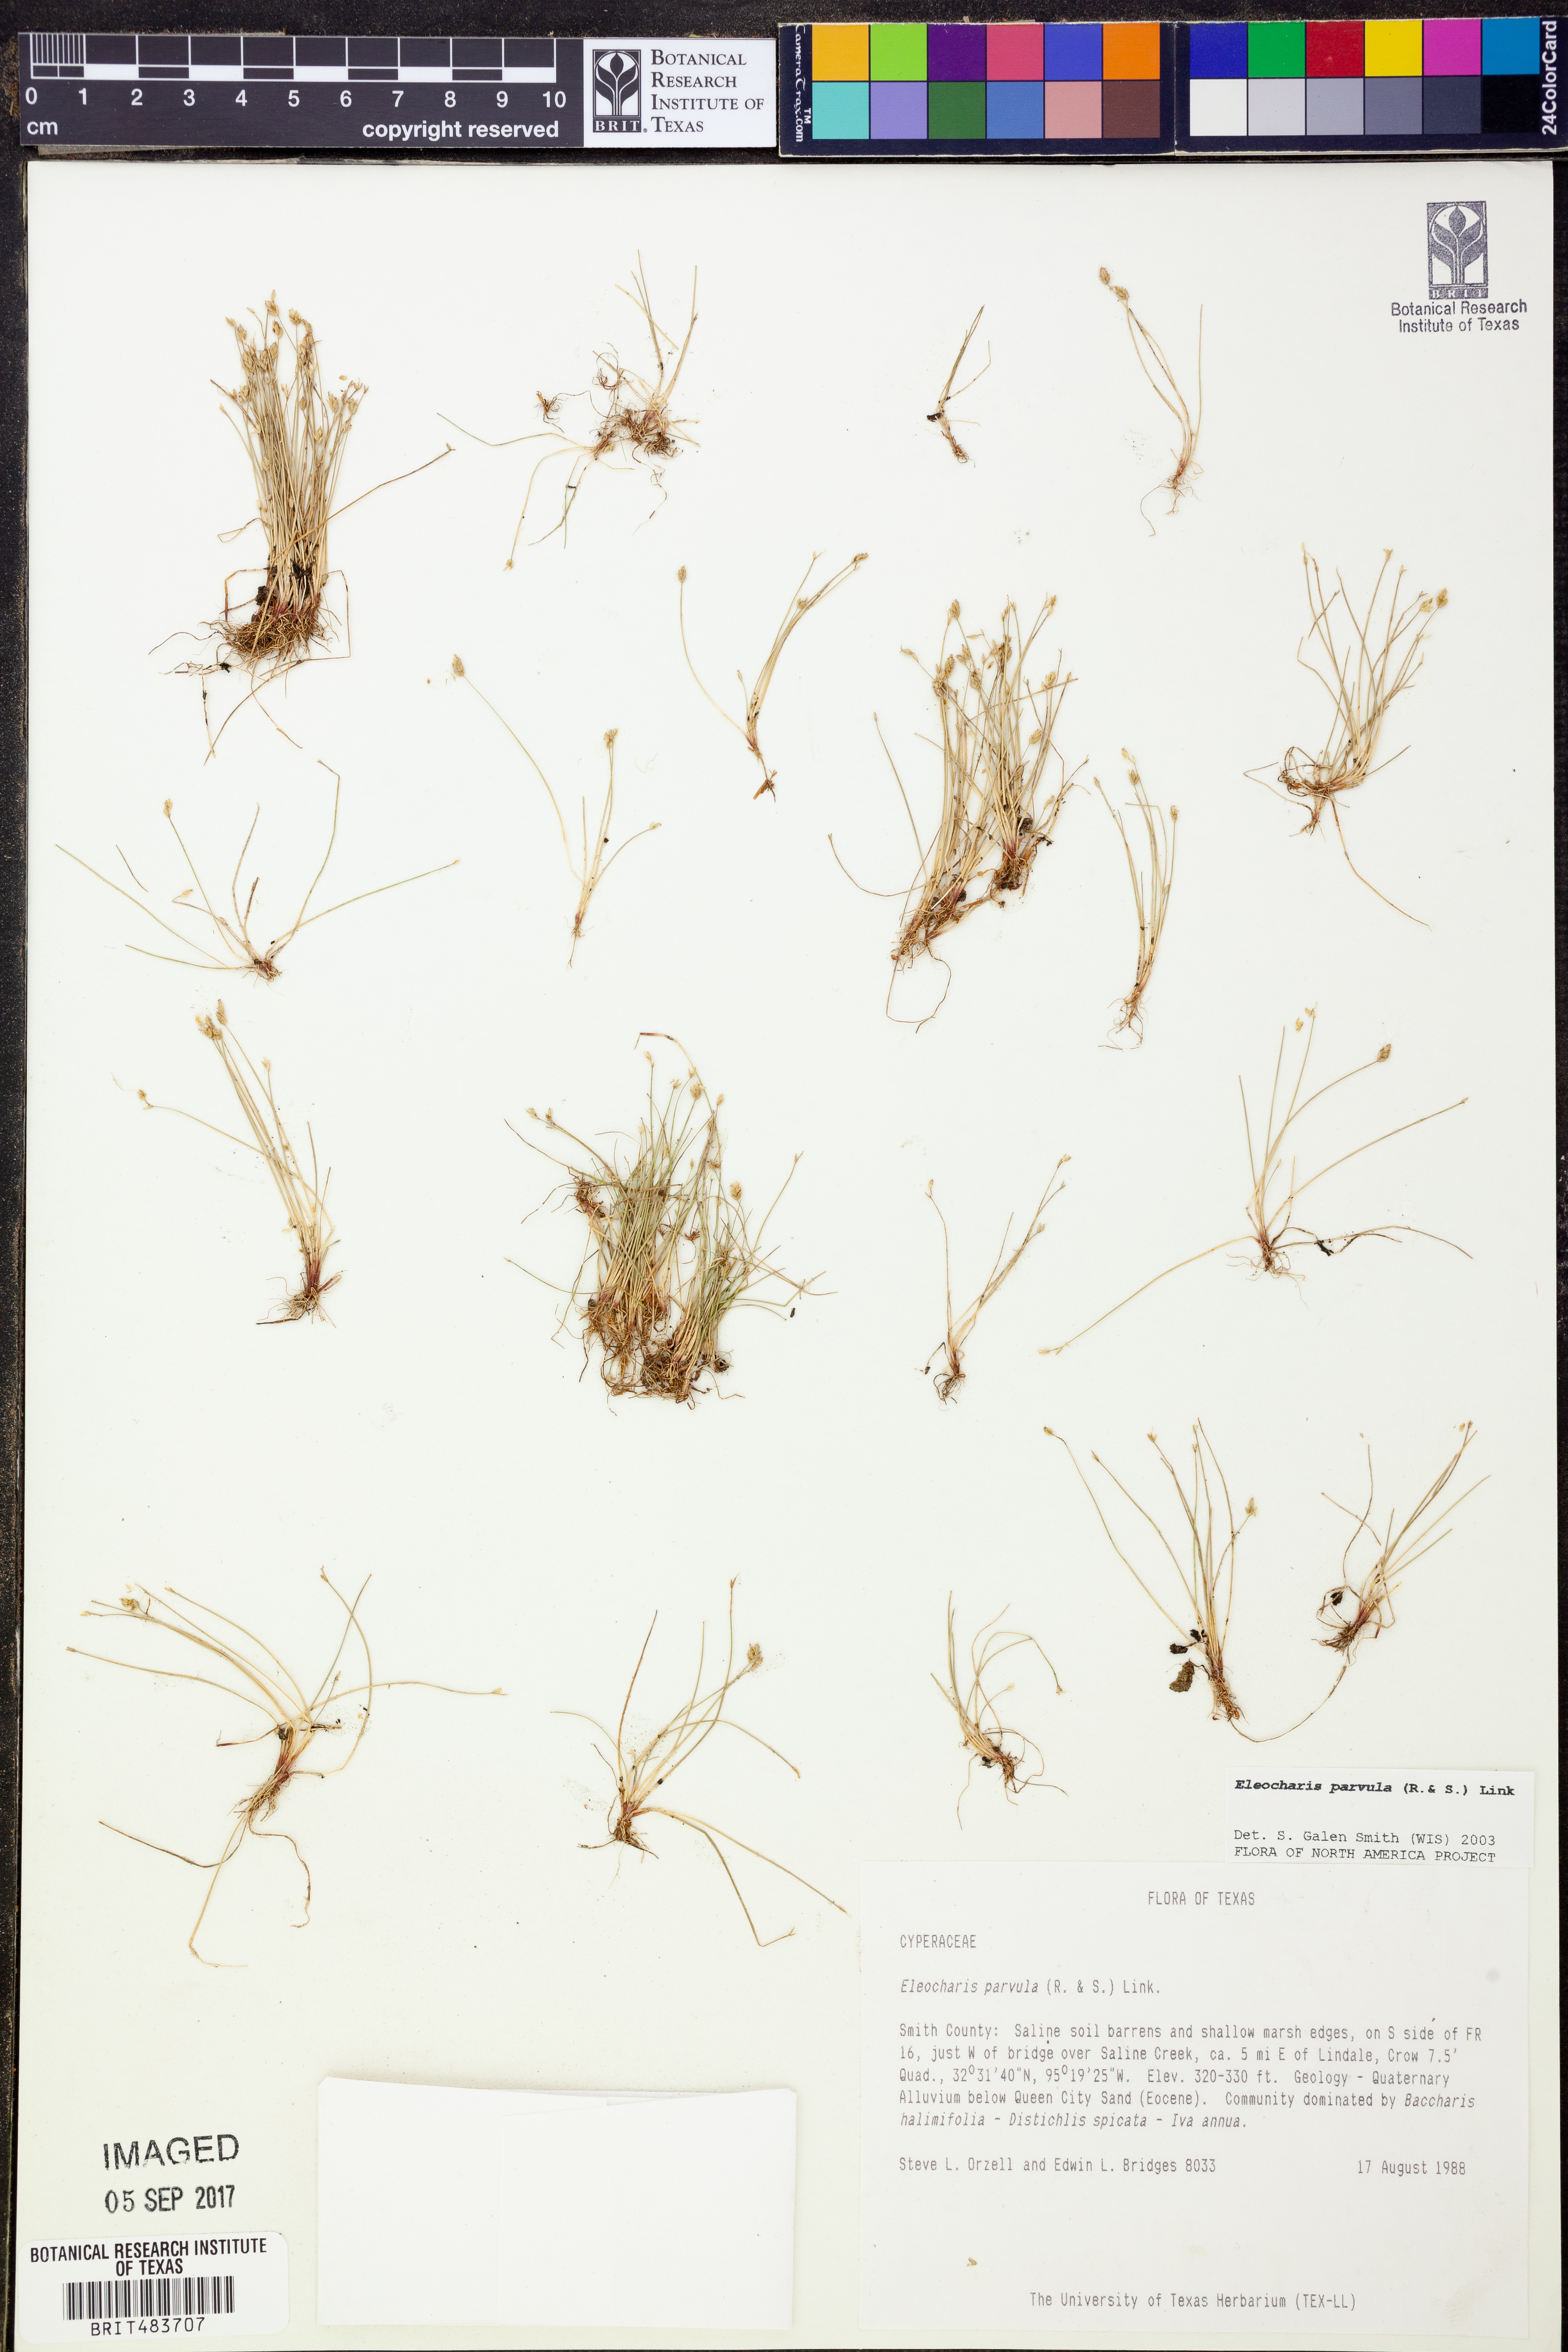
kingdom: Plantae
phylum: Tracheophyta
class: Liliopsida
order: Poales
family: Cyperaceae
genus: Eleocharis
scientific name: Eleocharis parvula
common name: Dwarf spike-rush
